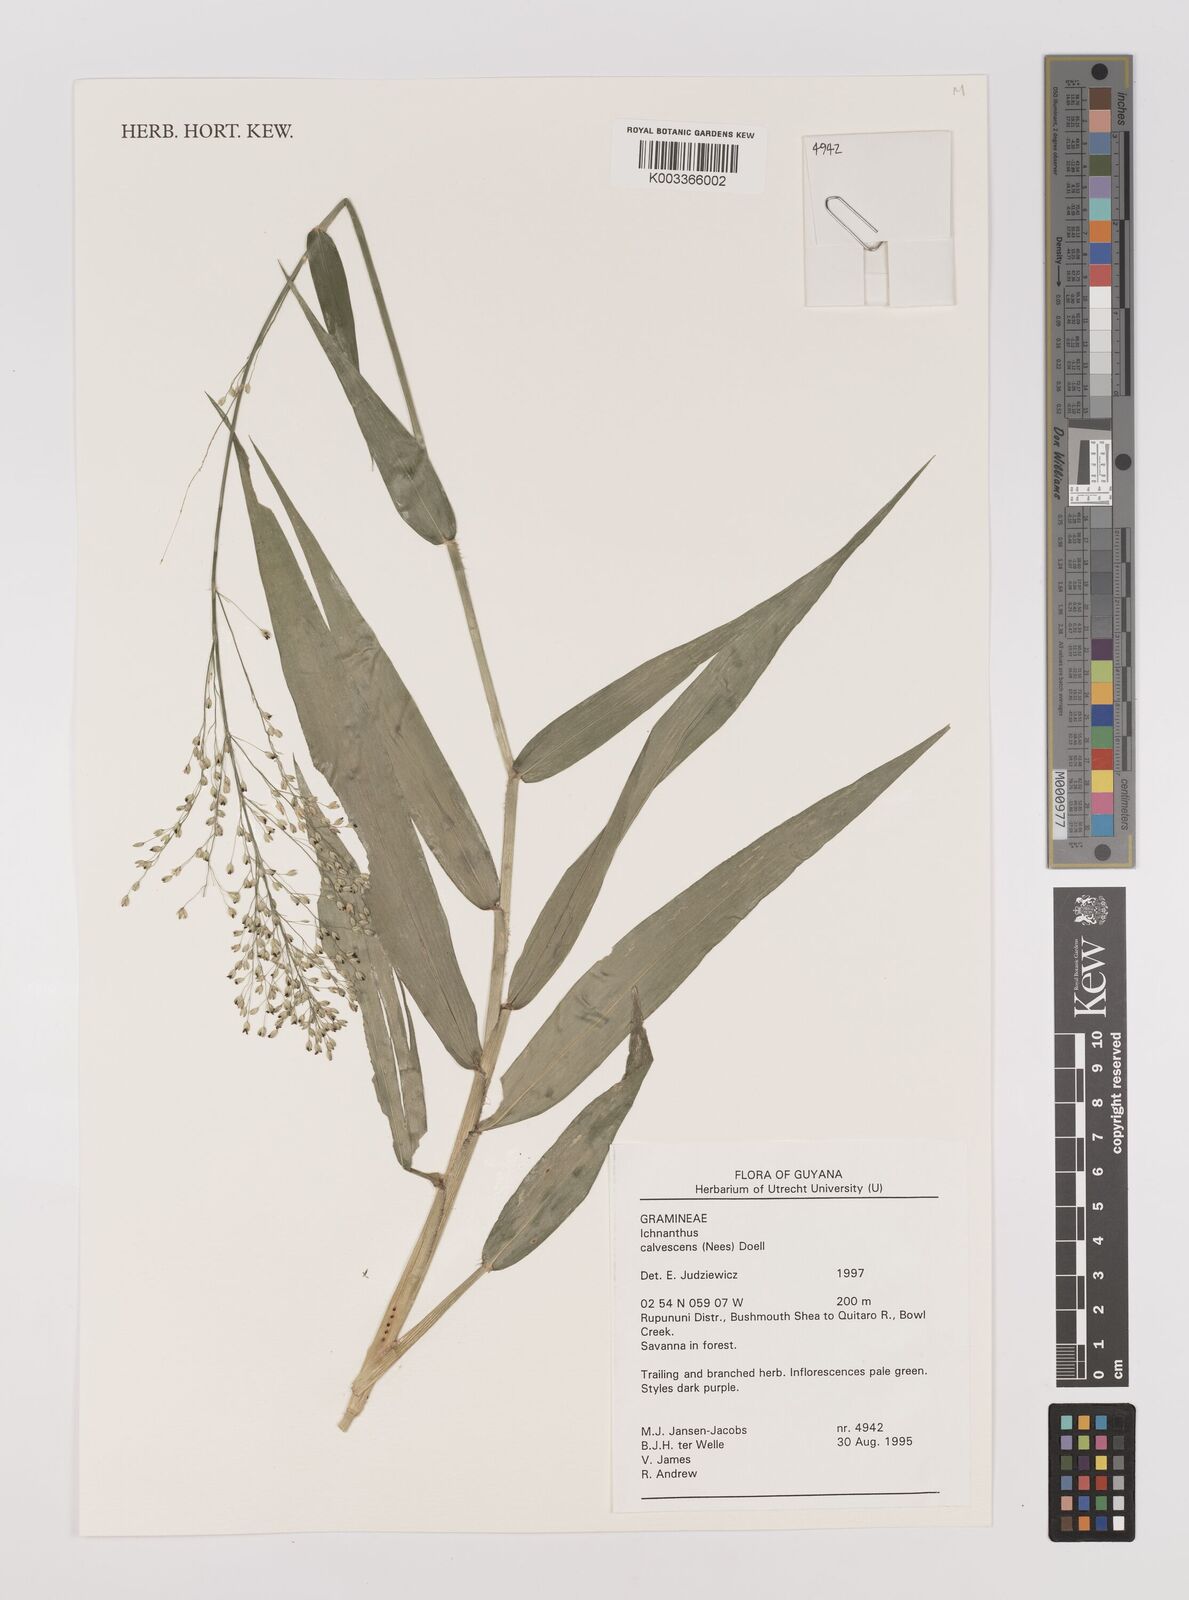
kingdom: Plantae
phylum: Tracheophyta
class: Liliopsida
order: Poales
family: Poaceae
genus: Ichnanthus
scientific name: Ichnanthus calvescens
